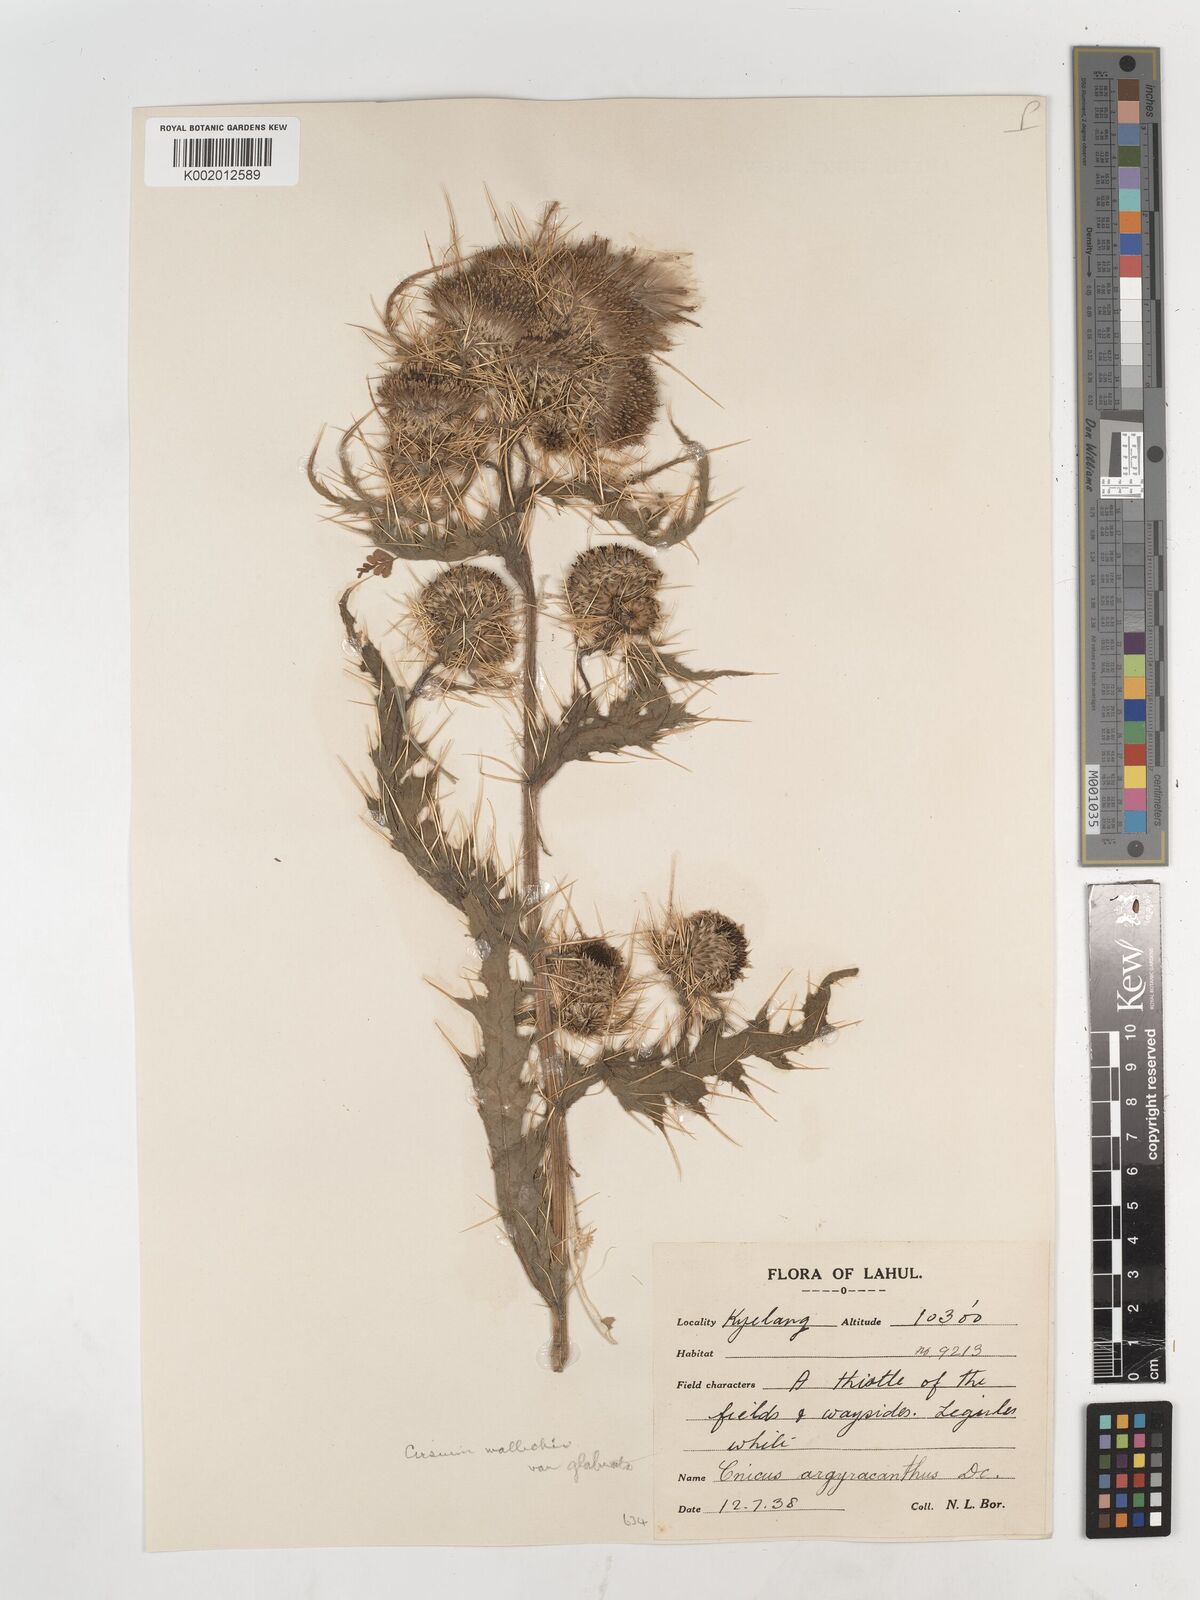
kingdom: Plantae
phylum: Tracheophyta
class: Magnoliopsida
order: Asterales
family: Asteraceae
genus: Cirsium
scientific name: Cirsium wallichii
